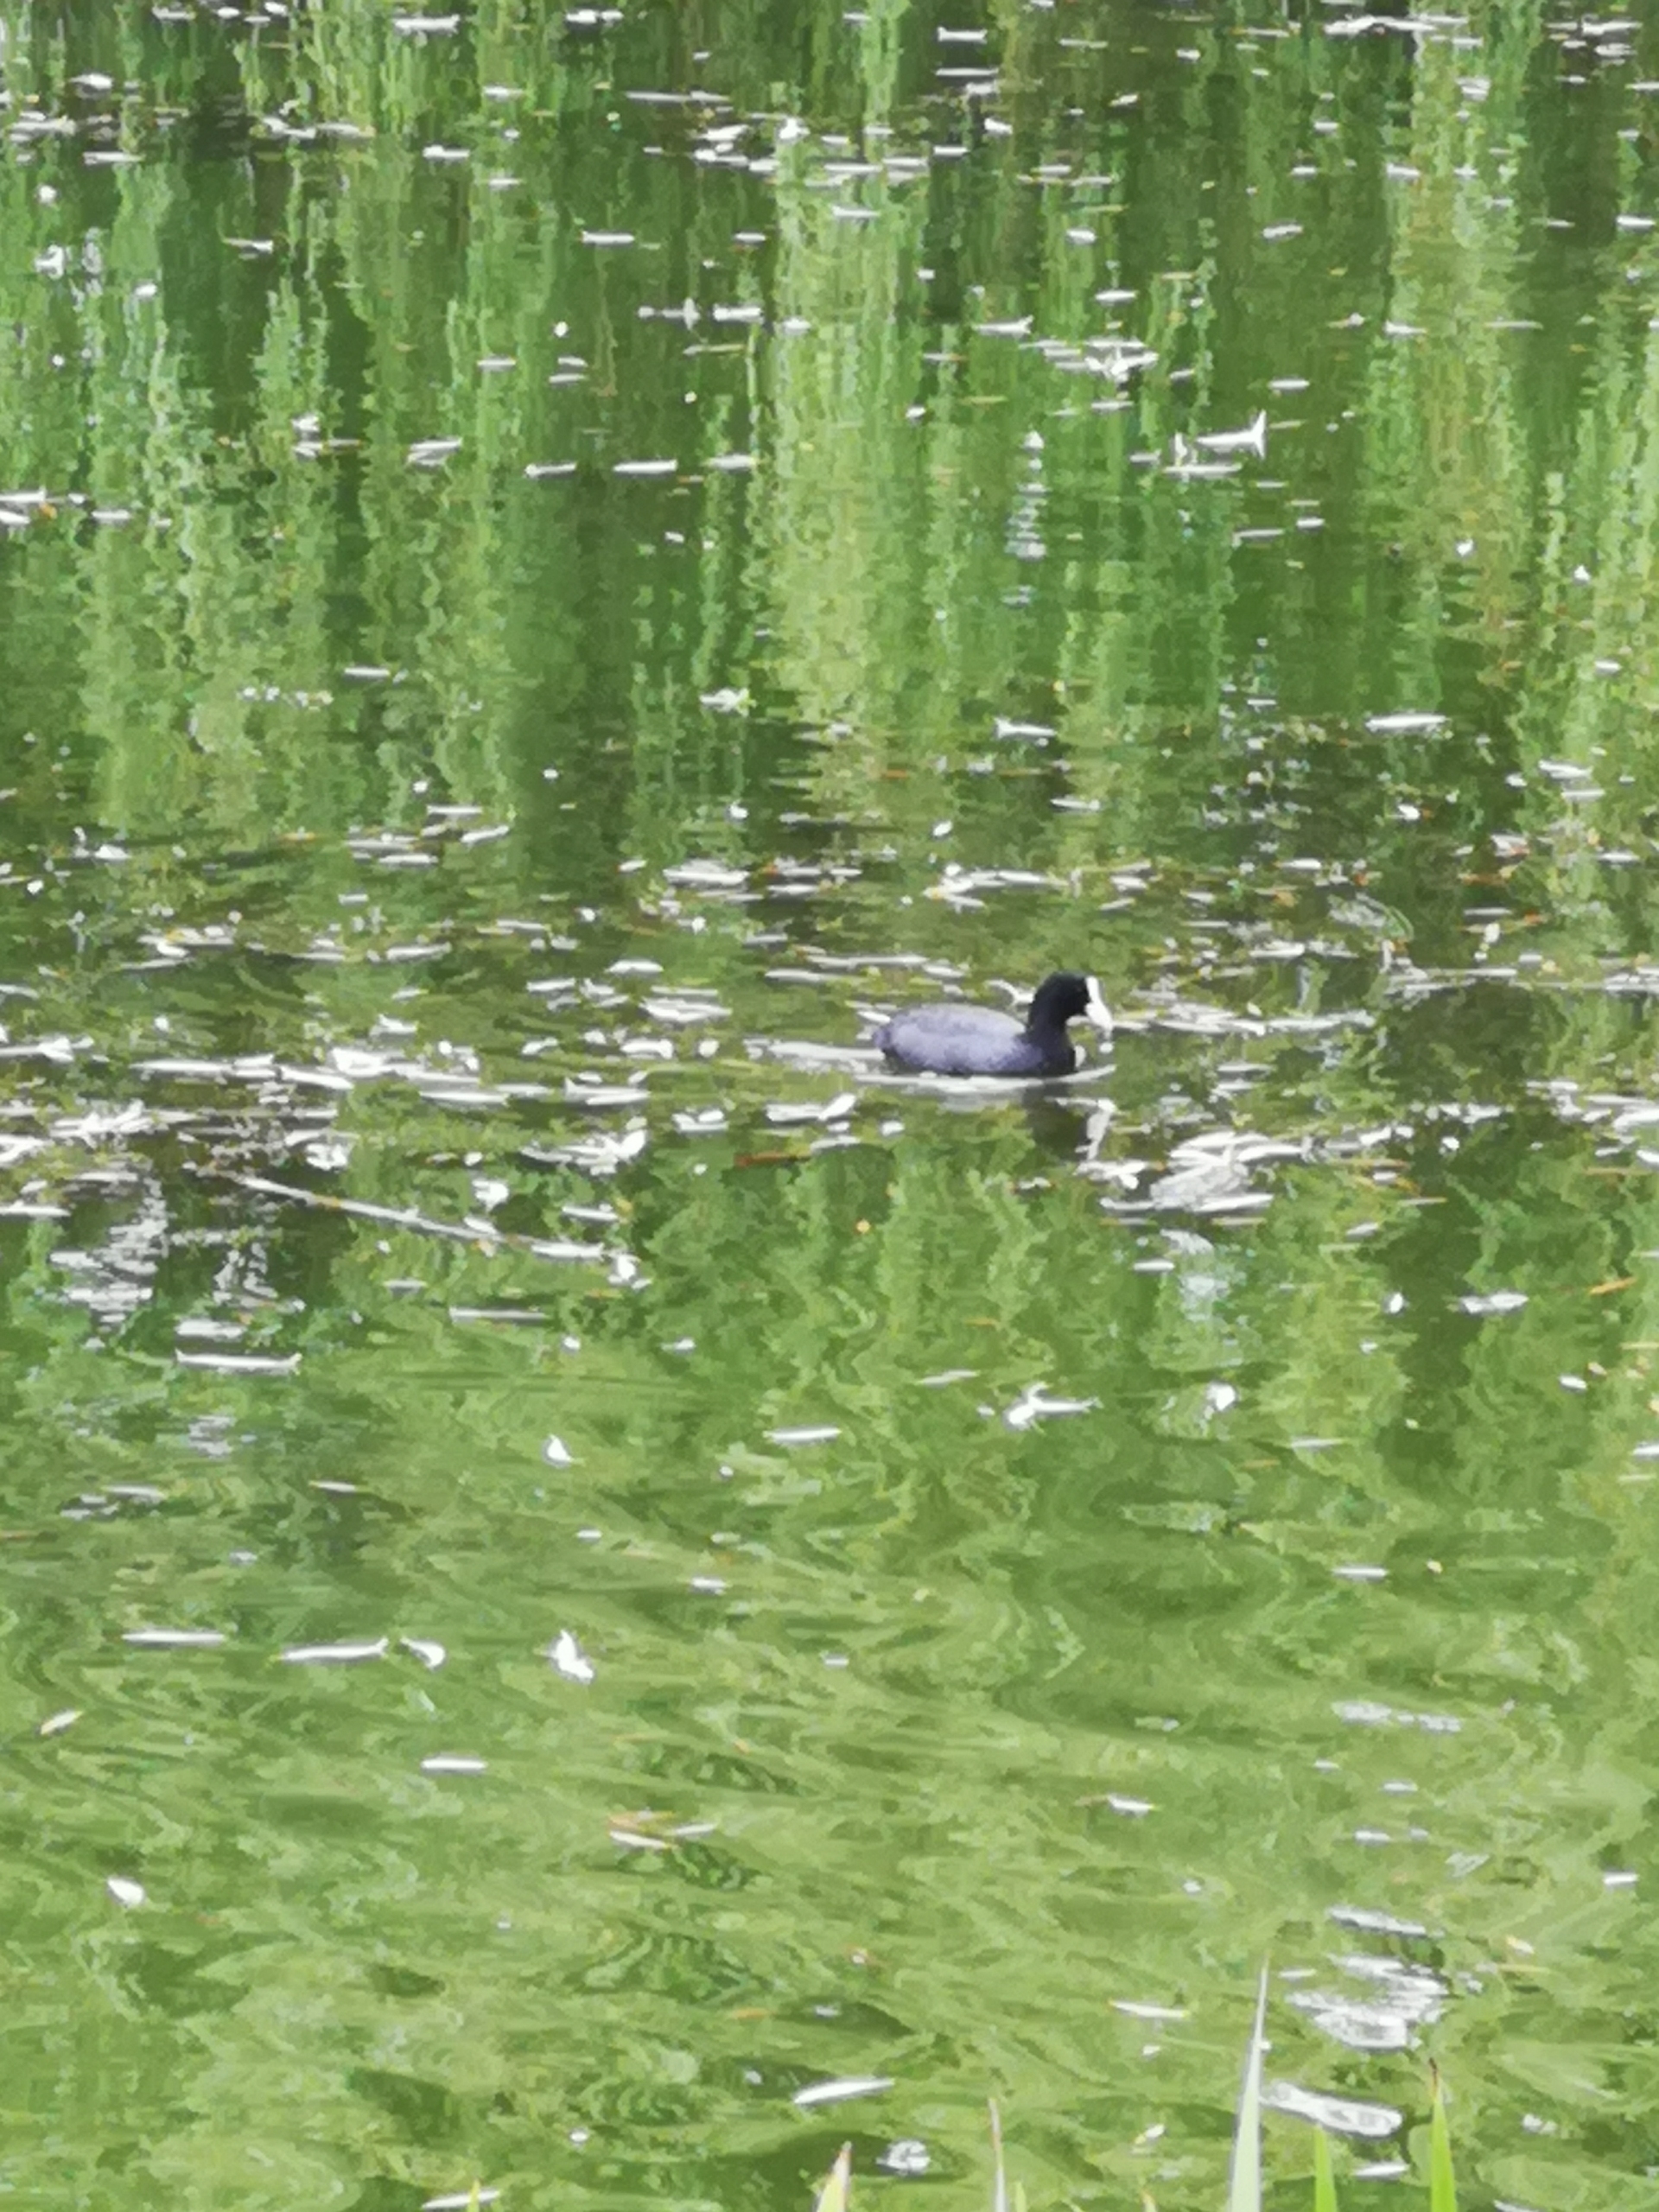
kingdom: Animalia
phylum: Chordata
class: Aves
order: Gruiformes
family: Rallidae
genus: Fulica
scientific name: Fulica atra
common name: Blishøne
